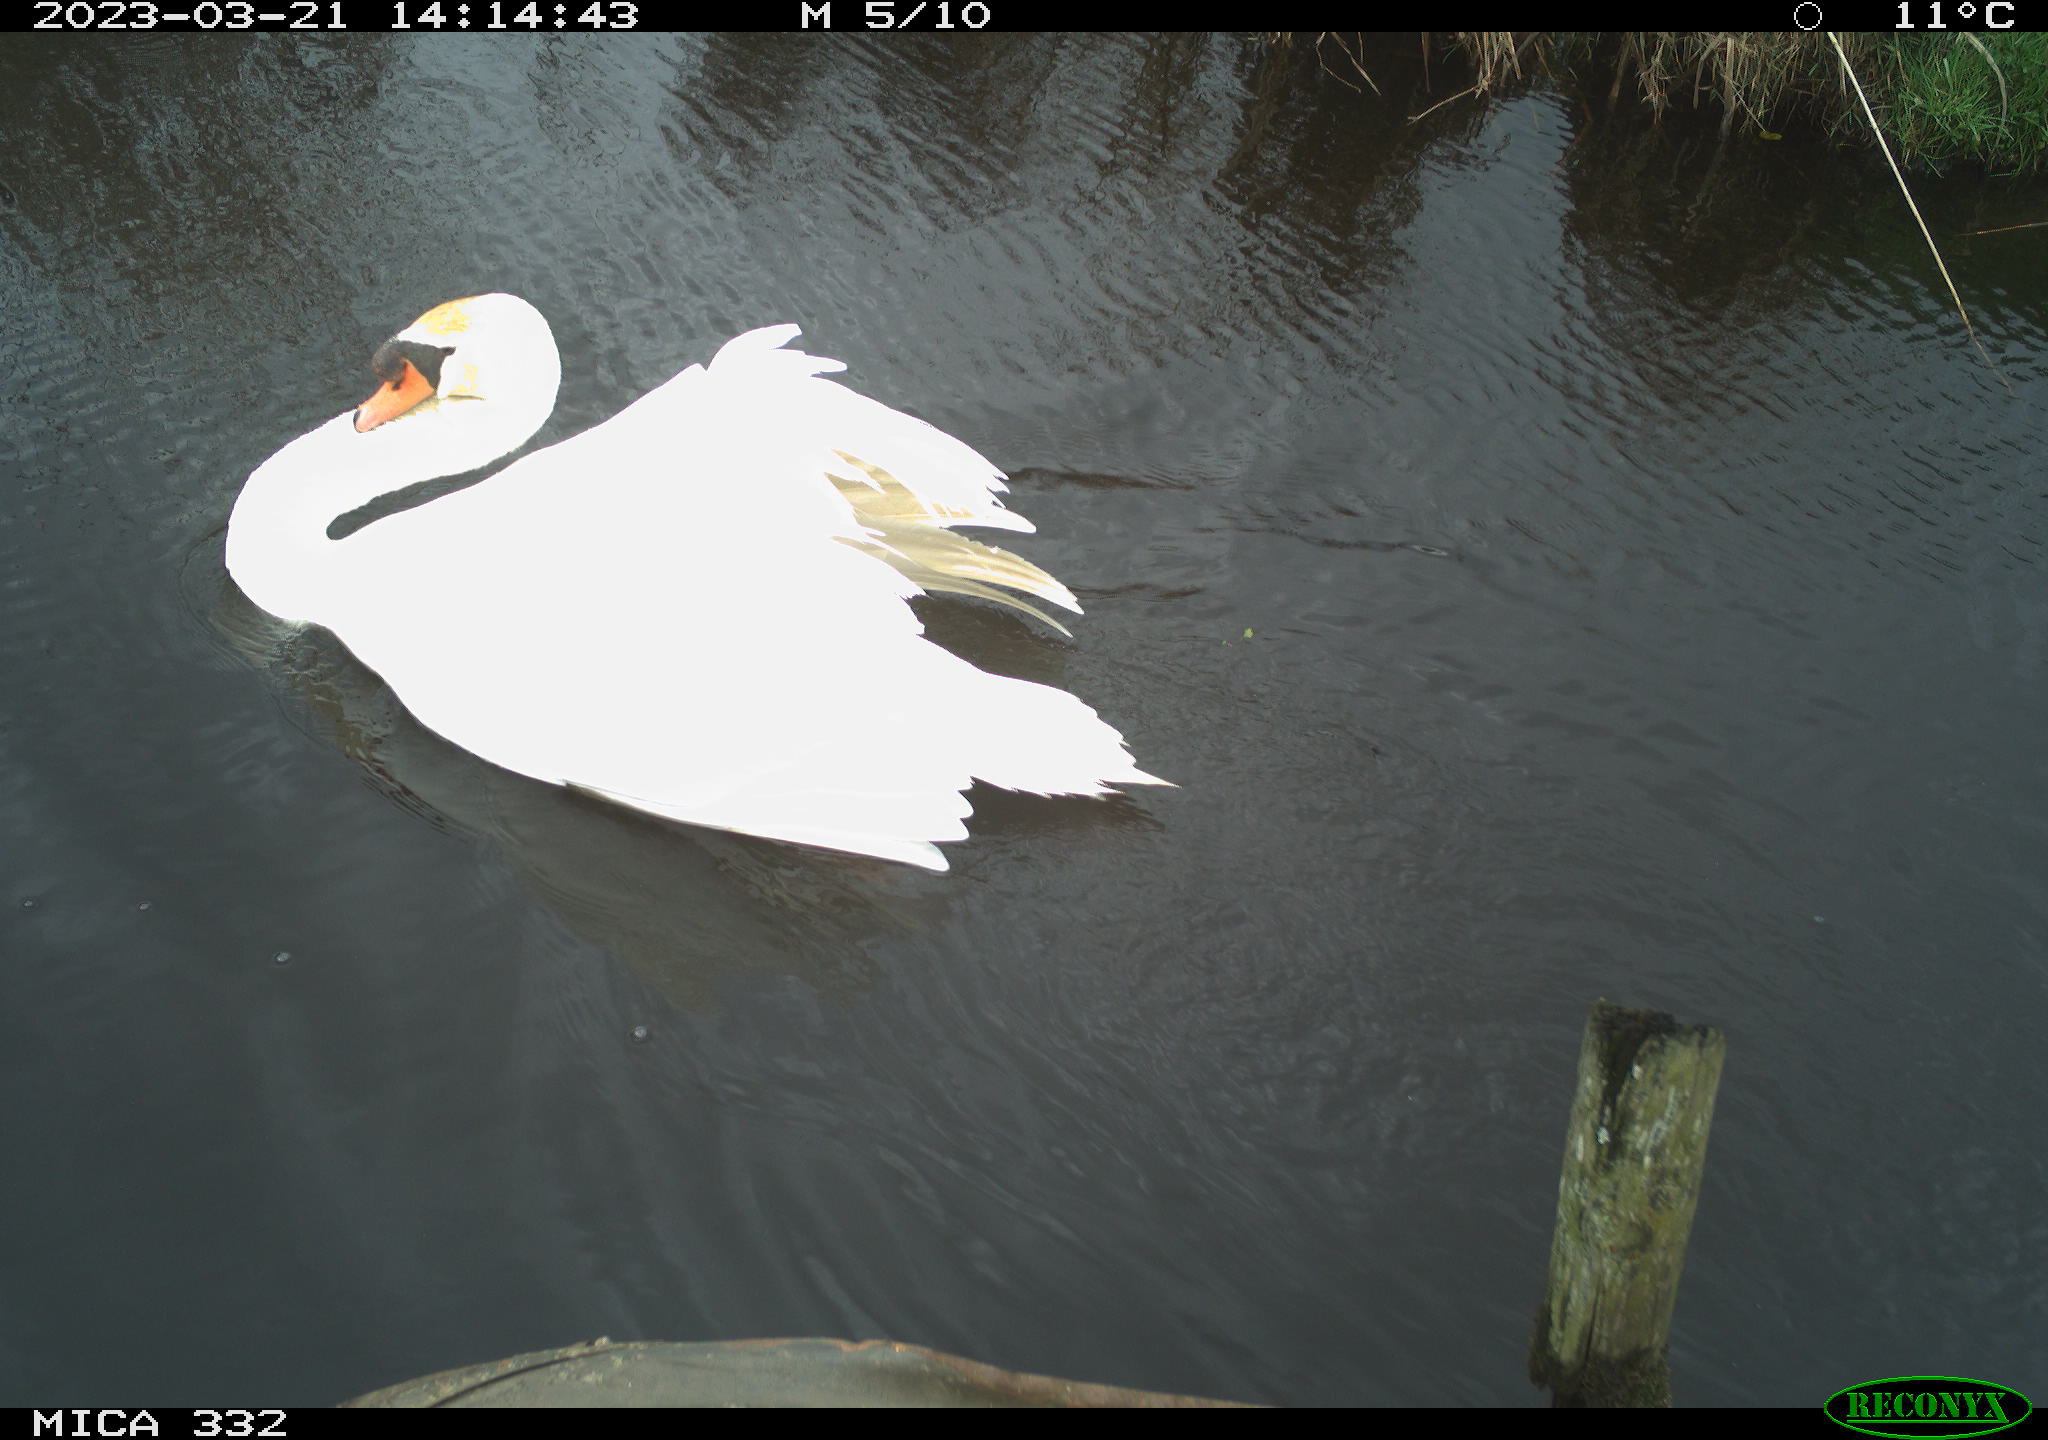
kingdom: Animalia
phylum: Chordata
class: Aves
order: Anseriformes
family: Anatidae
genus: Cygnus
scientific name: Cygnus olor
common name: Mute swan
